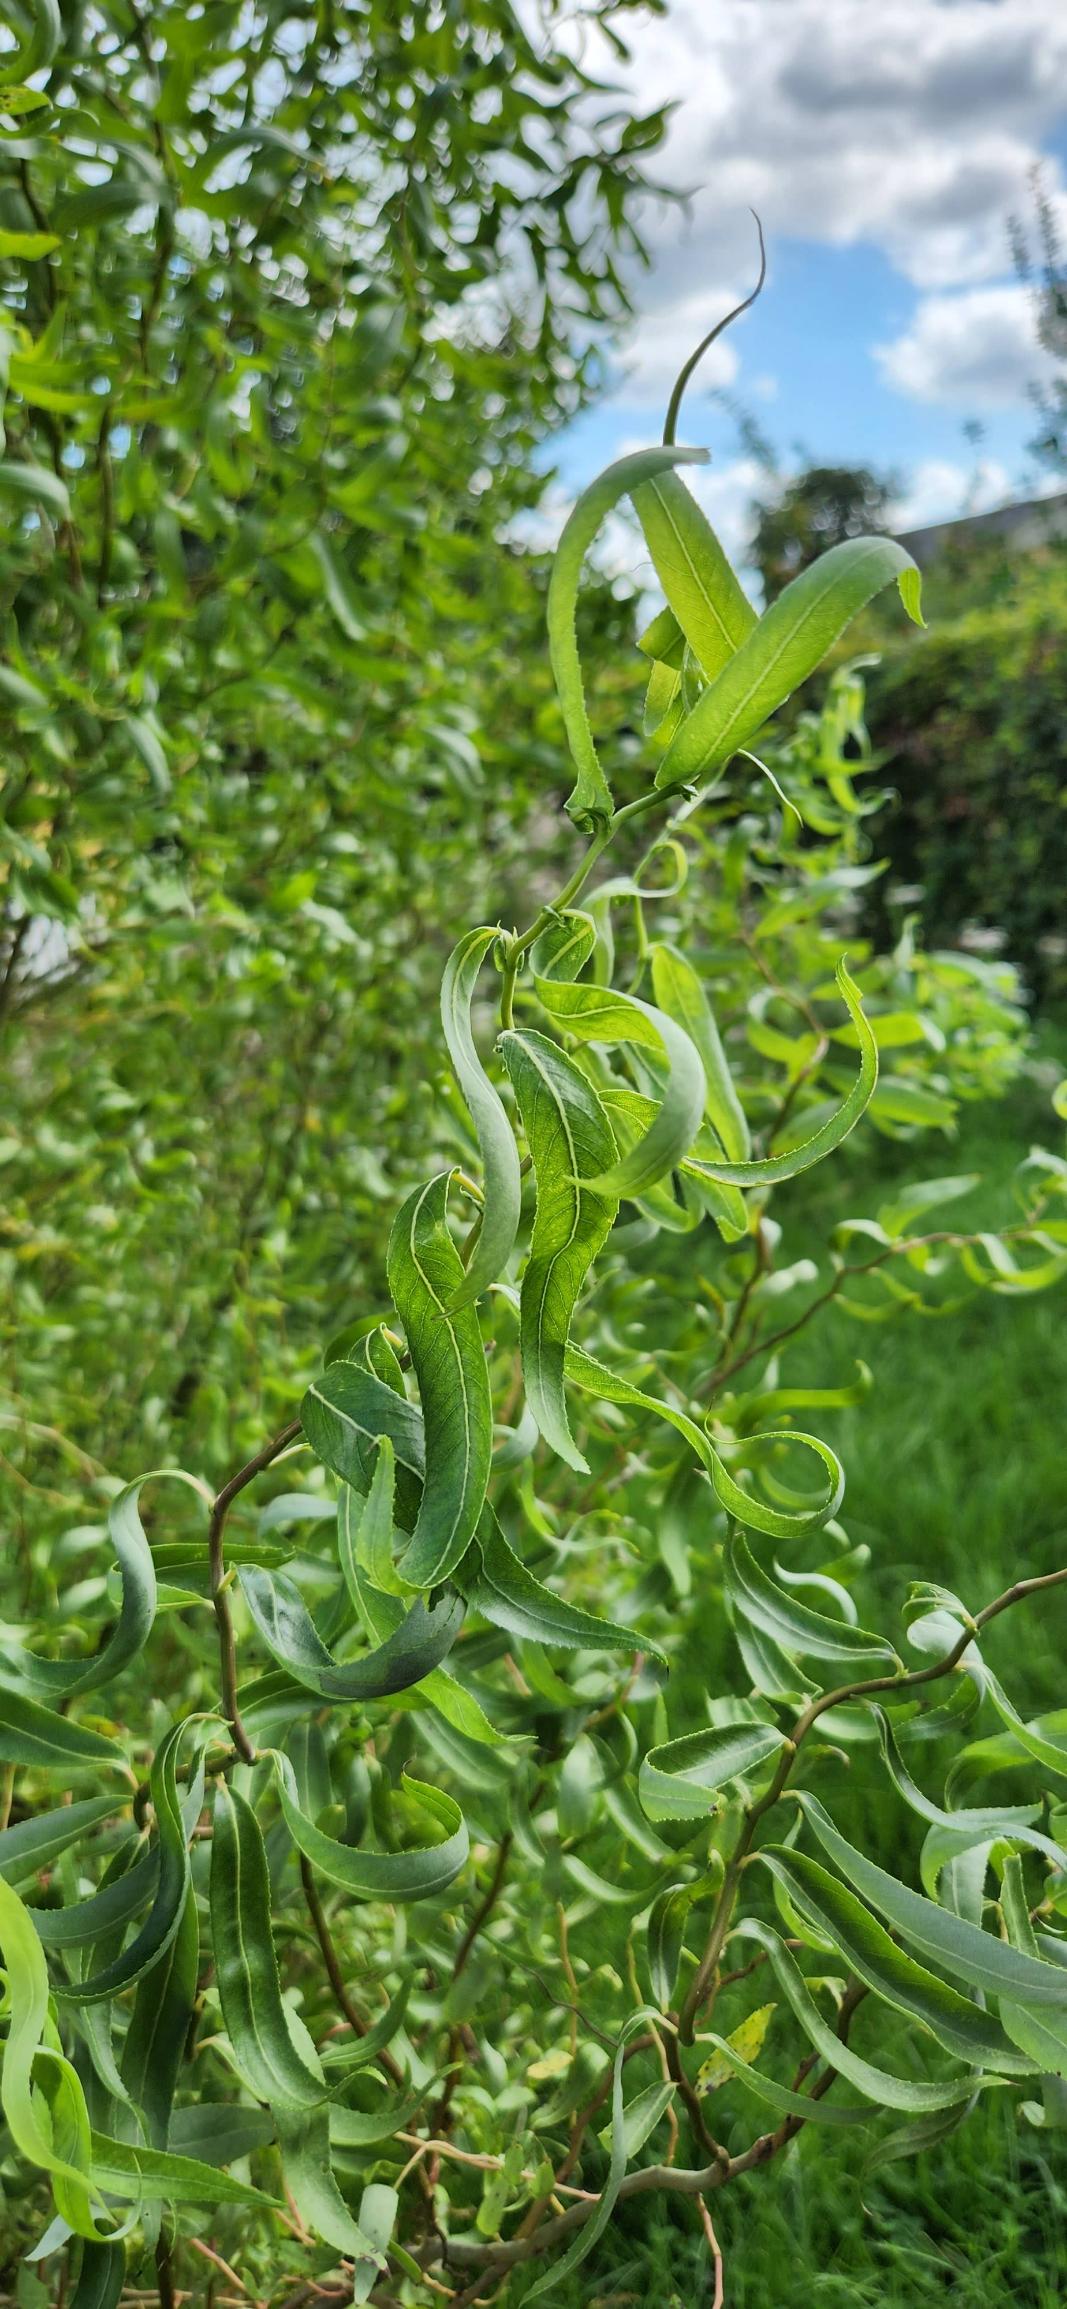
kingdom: Plantae
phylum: Tracheophyta
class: Magnoliopsida
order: Malpighiales
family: Salicaceae
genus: Salix
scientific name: Salix babylonica
